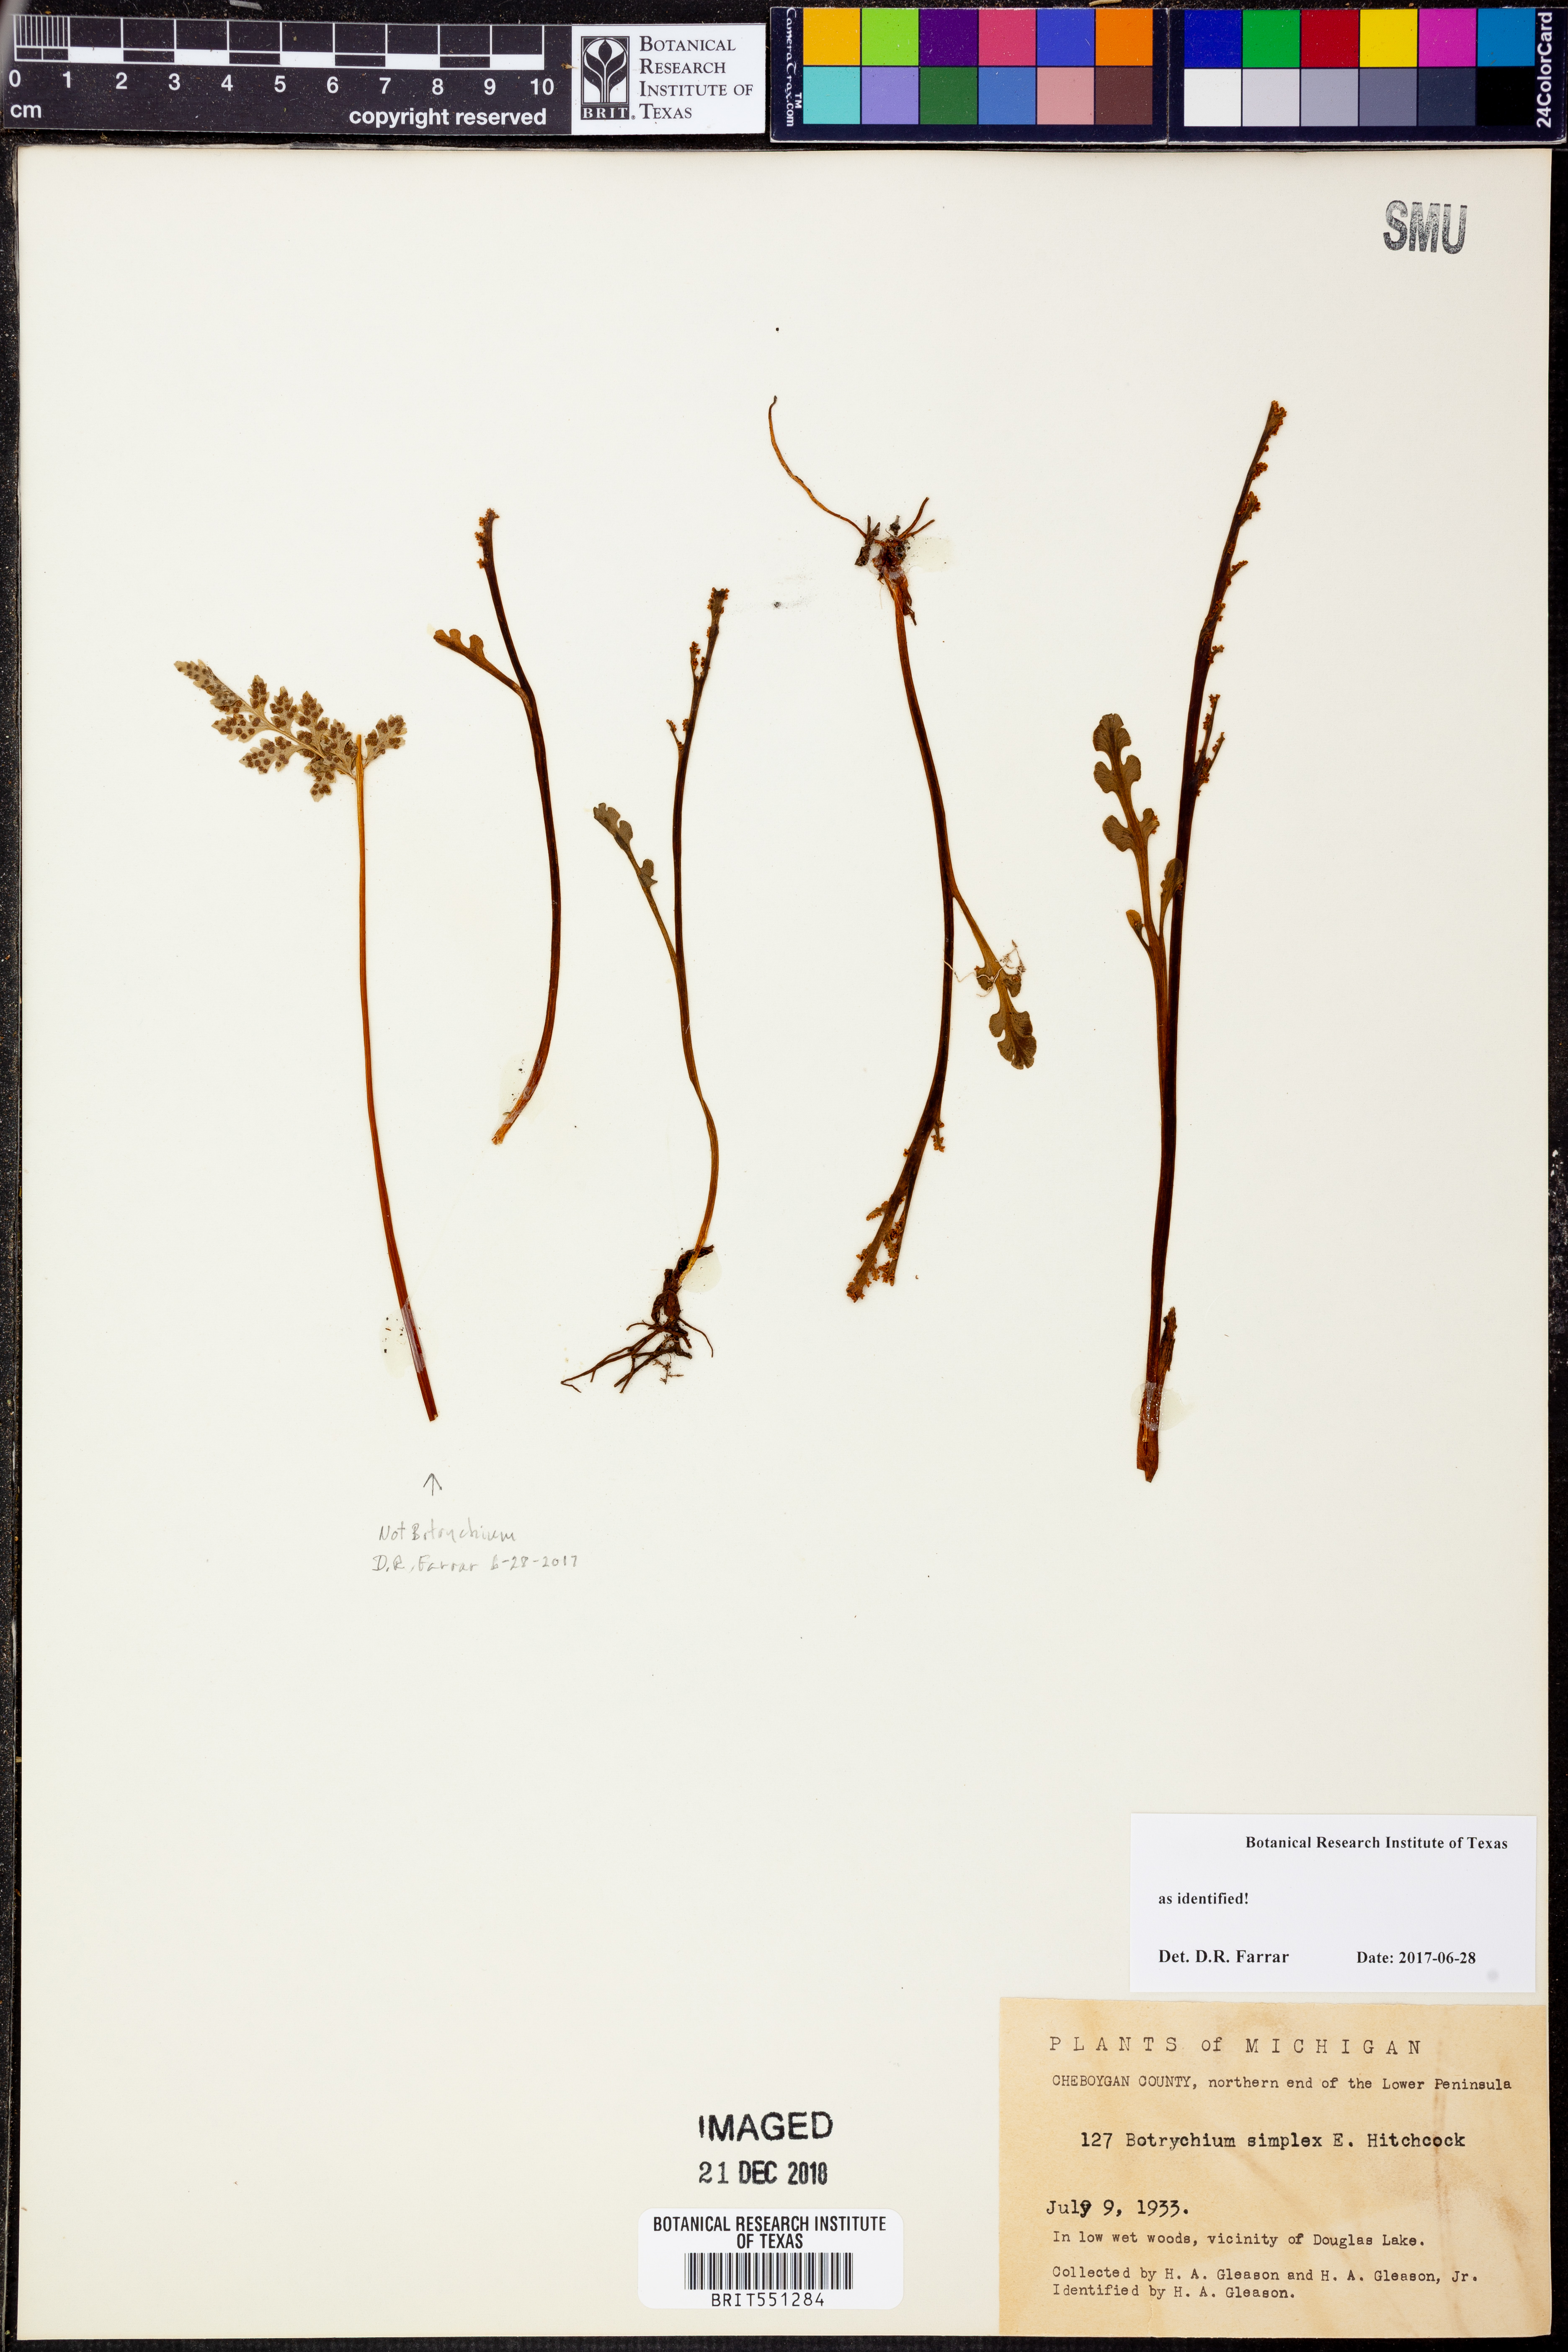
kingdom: Plantae
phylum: Tracheophyta
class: Polypodiopsida
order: Ophioglossales
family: Ophioglossaceae
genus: Botrychium
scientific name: Botrychium simplex
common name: Least moonwort
